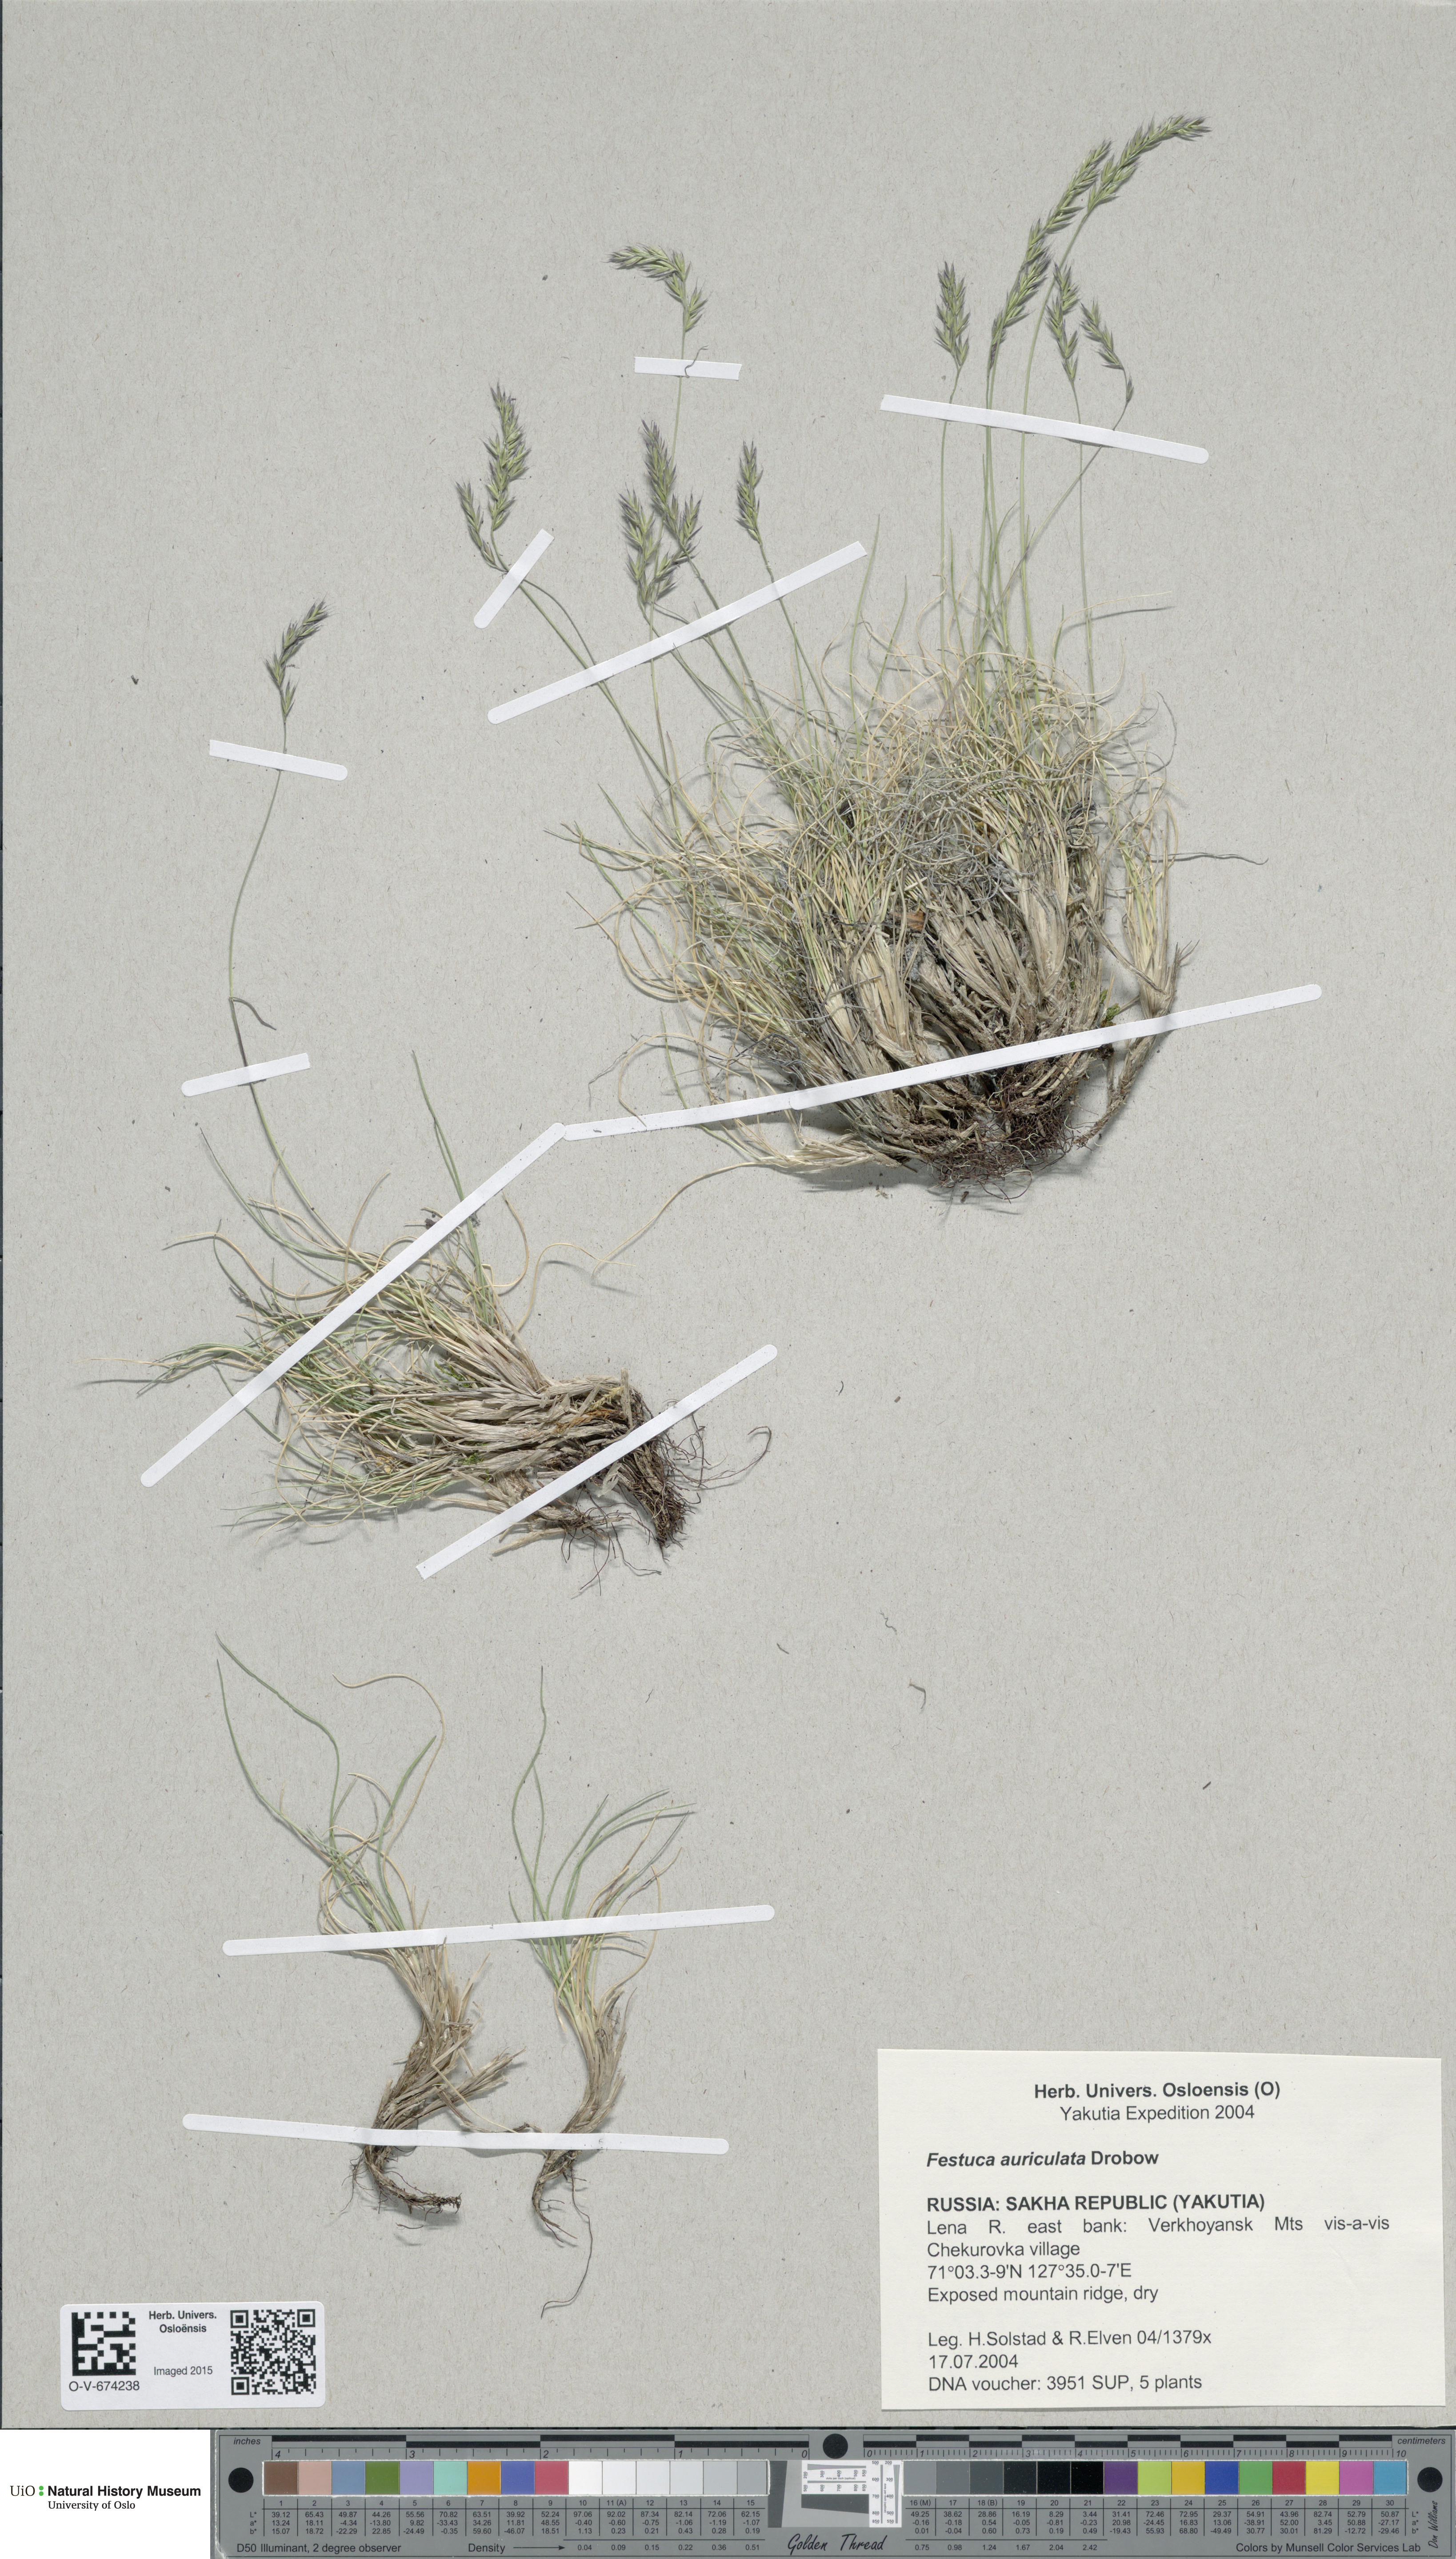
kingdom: Plantae
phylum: Tracheophyta
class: Liliopsida
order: Poales
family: Poaceae
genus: Festuca
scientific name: Festuca auriculata
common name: Eared fescue
